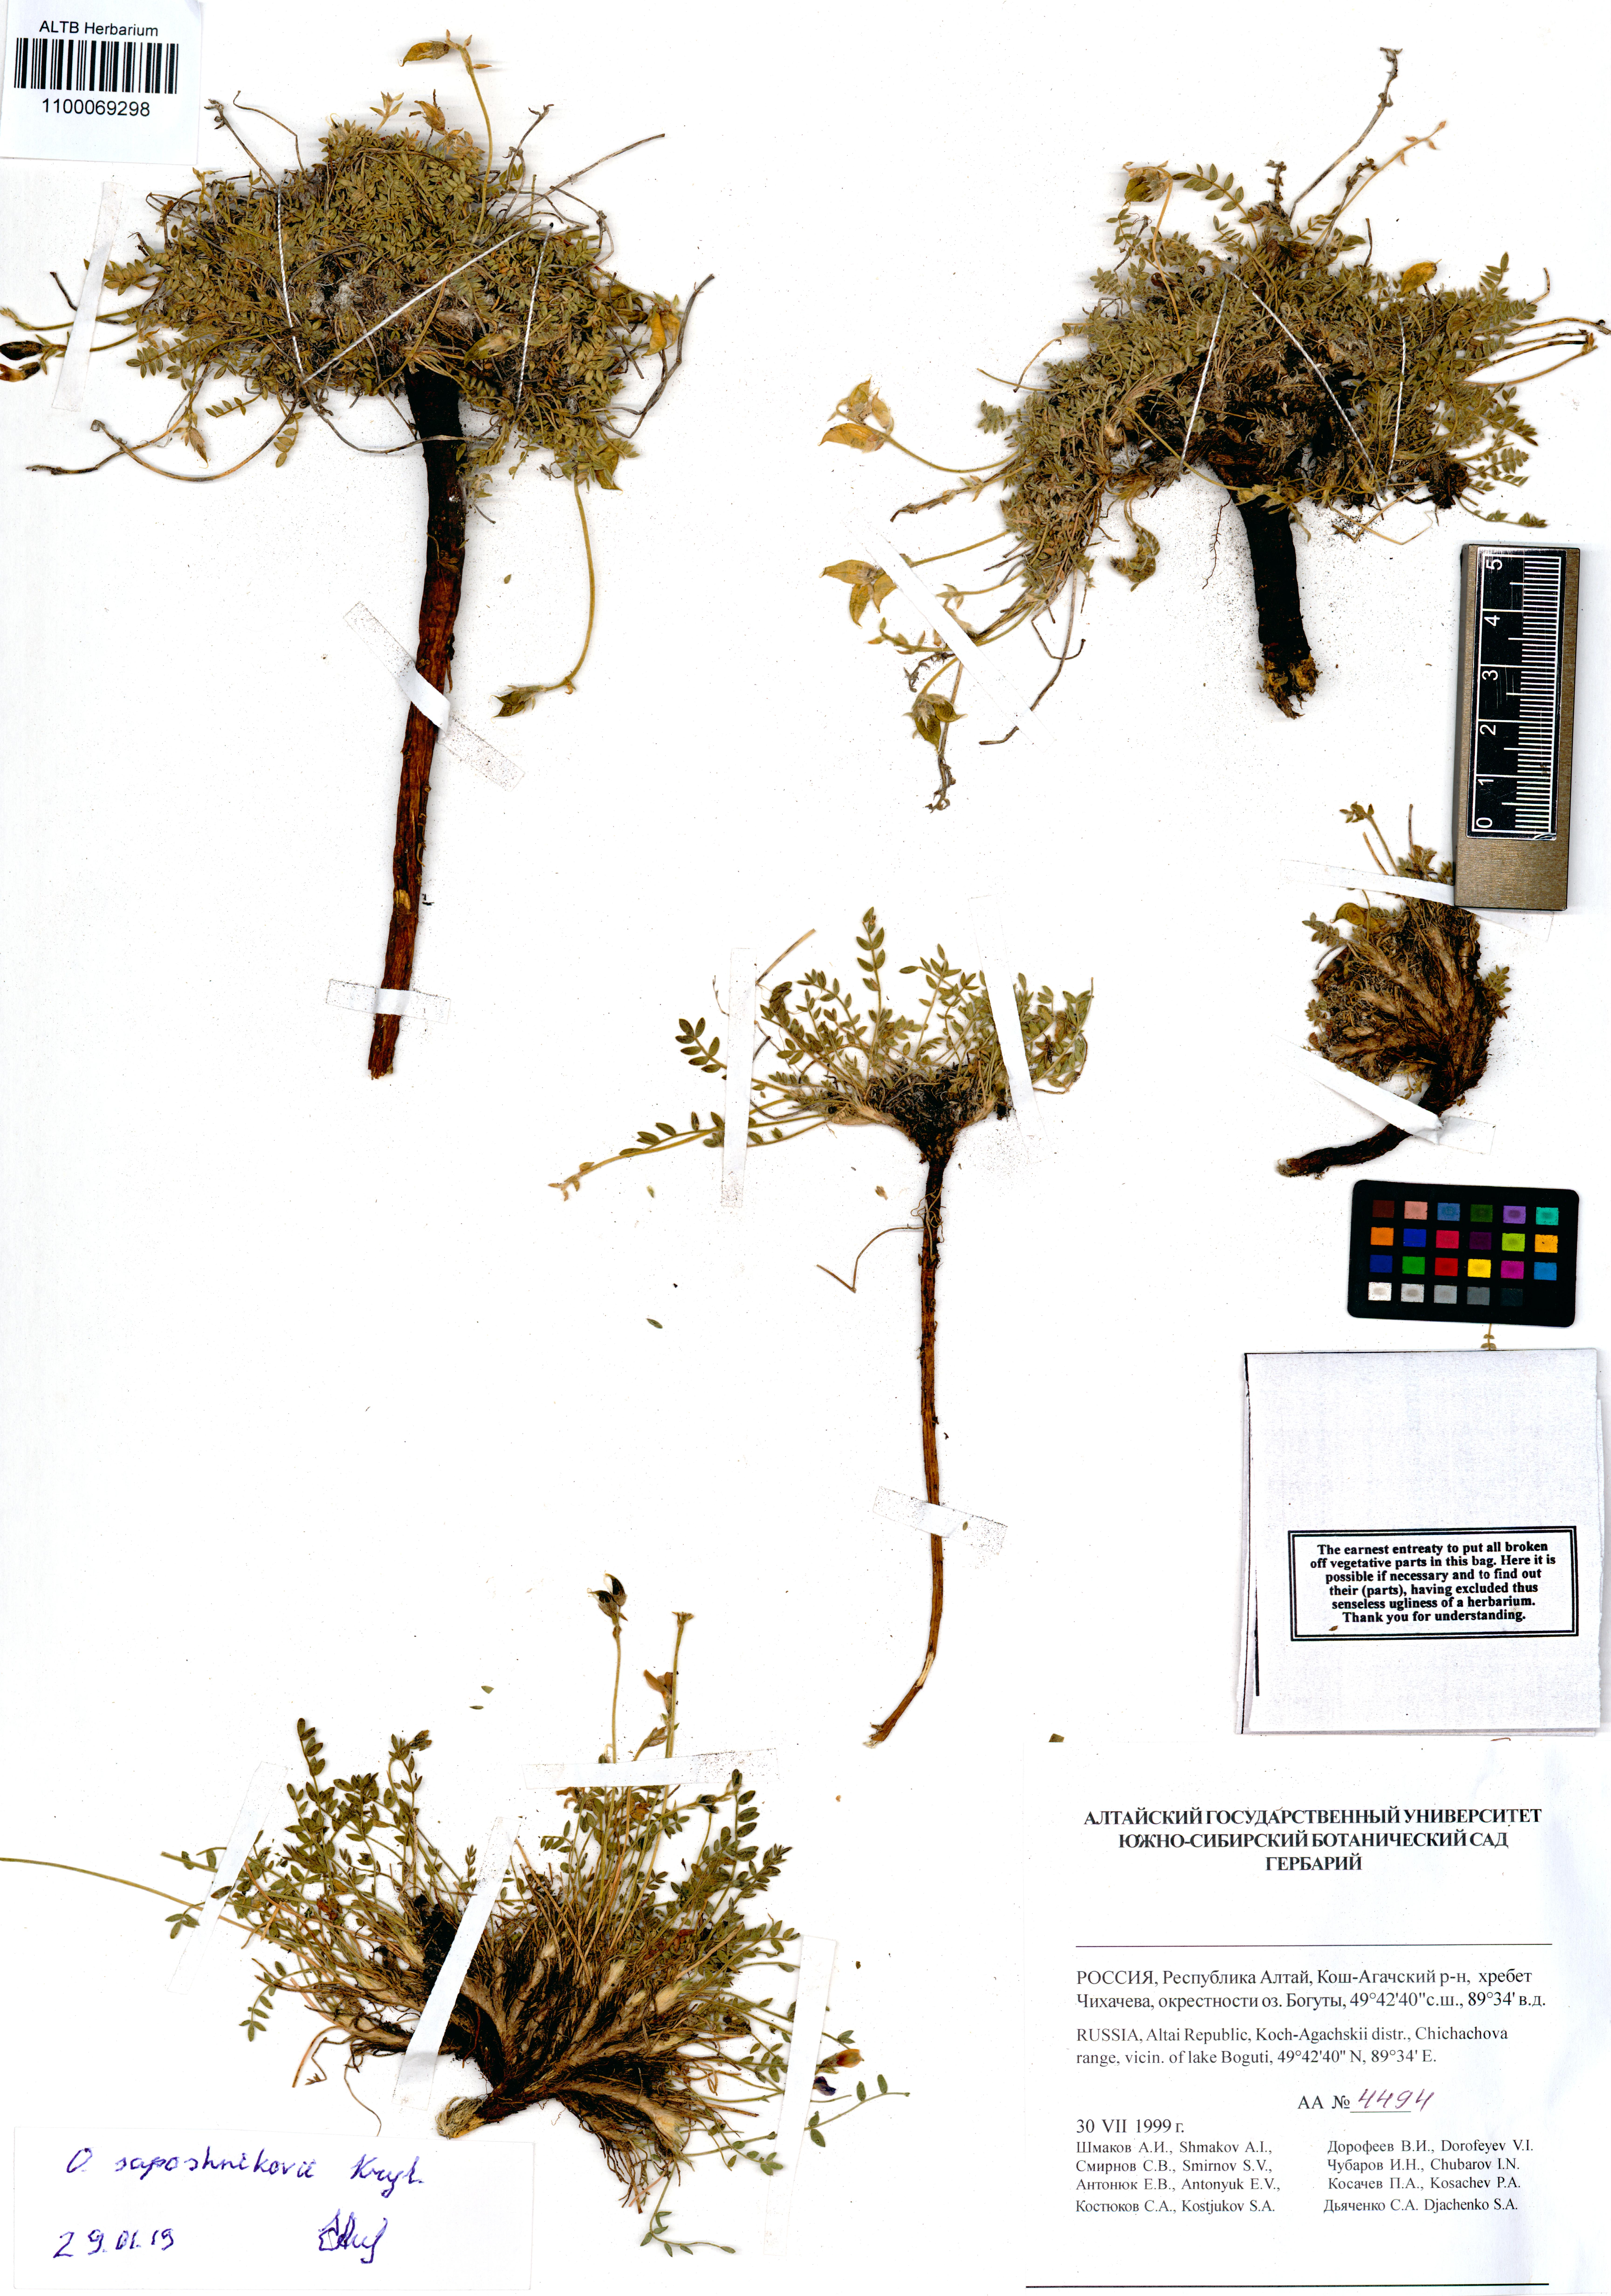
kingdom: Plantae
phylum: Tracheophyta
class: Magnoliopsida
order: Fabales
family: Fabaceae
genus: Oxytropis
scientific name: Oxytropis saposhnikovii
